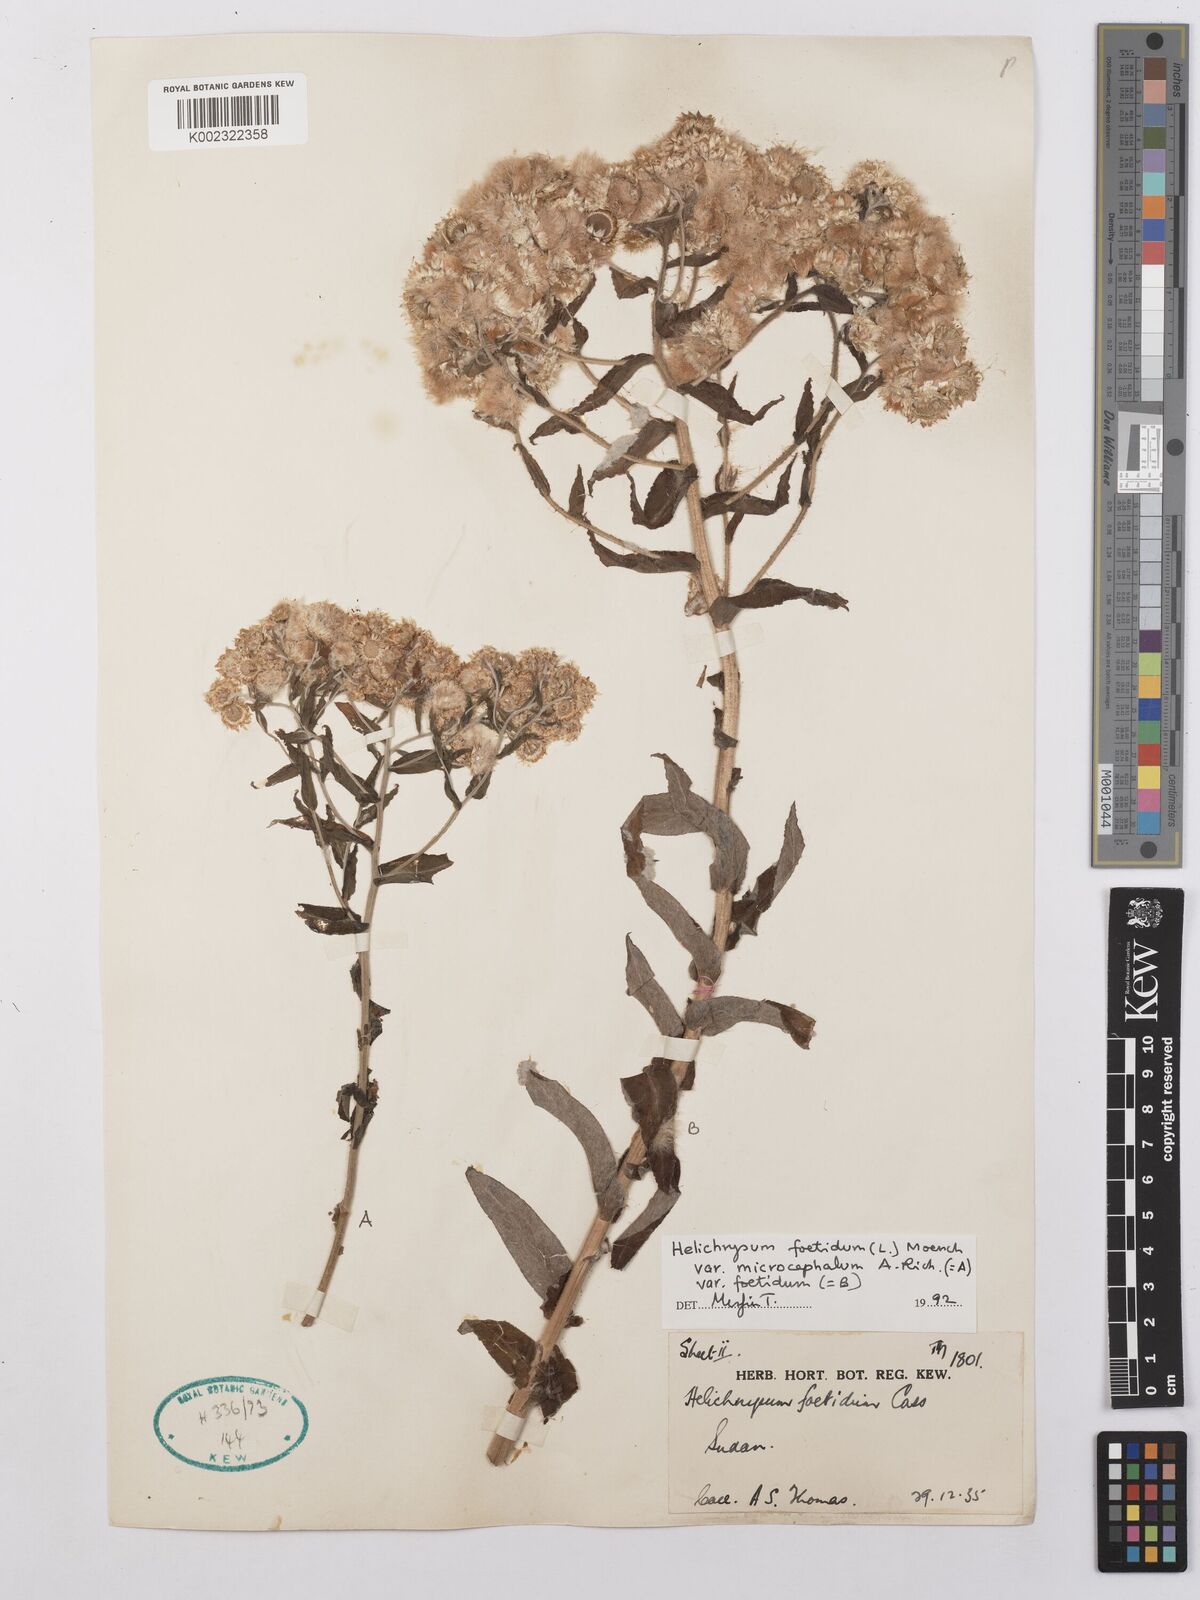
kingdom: Plantae
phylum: Tracheophyta
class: Magnoliopsida
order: Asterales
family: Asteraceae
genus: Helichrysum
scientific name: Helichrysum foetidum
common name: Stinking everlasting
